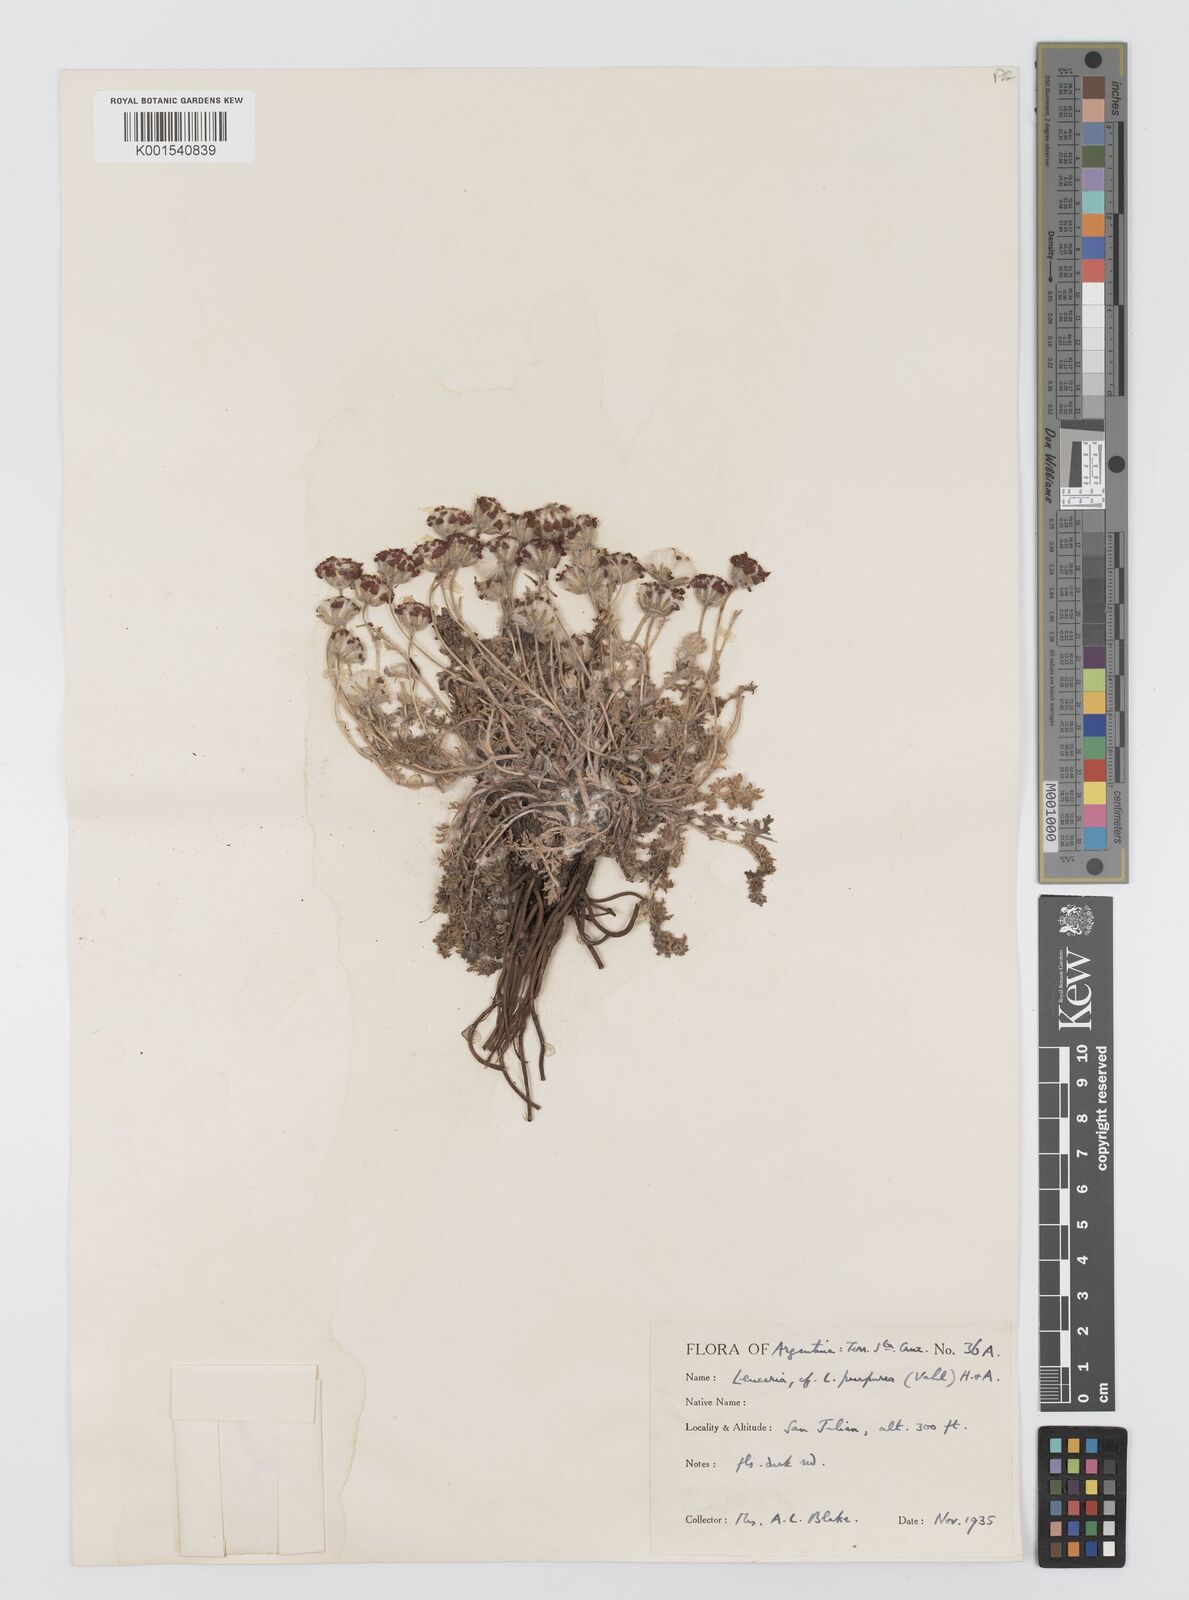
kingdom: Plantae
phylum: Tracheophyta
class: Magnoliopsida
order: Asterales
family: Asteraceae
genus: Leucheria
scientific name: Leucheria purpurea
